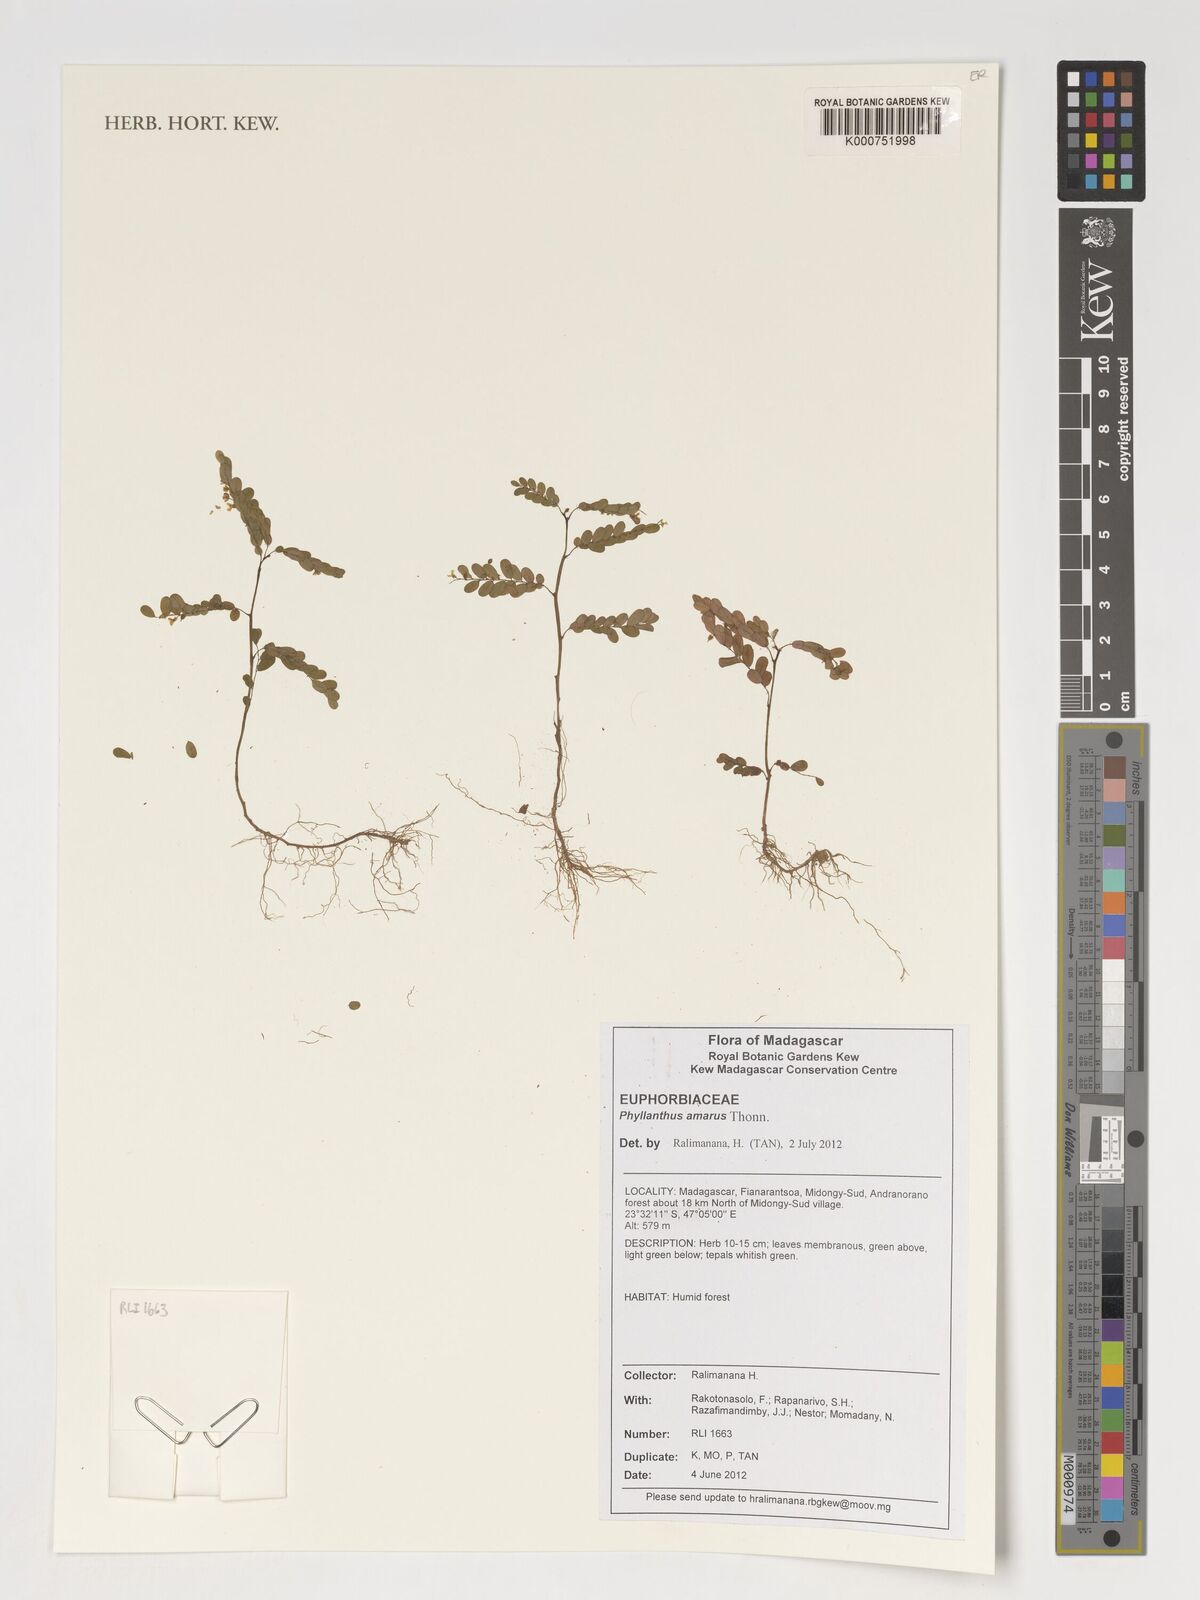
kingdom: Plantae
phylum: Tracheophyta
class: Magnoliopsida
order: Malpighiales
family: Phyllanthaceae
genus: Phyllanthus
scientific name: Phyllanthus amarus
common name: Carry me seed
